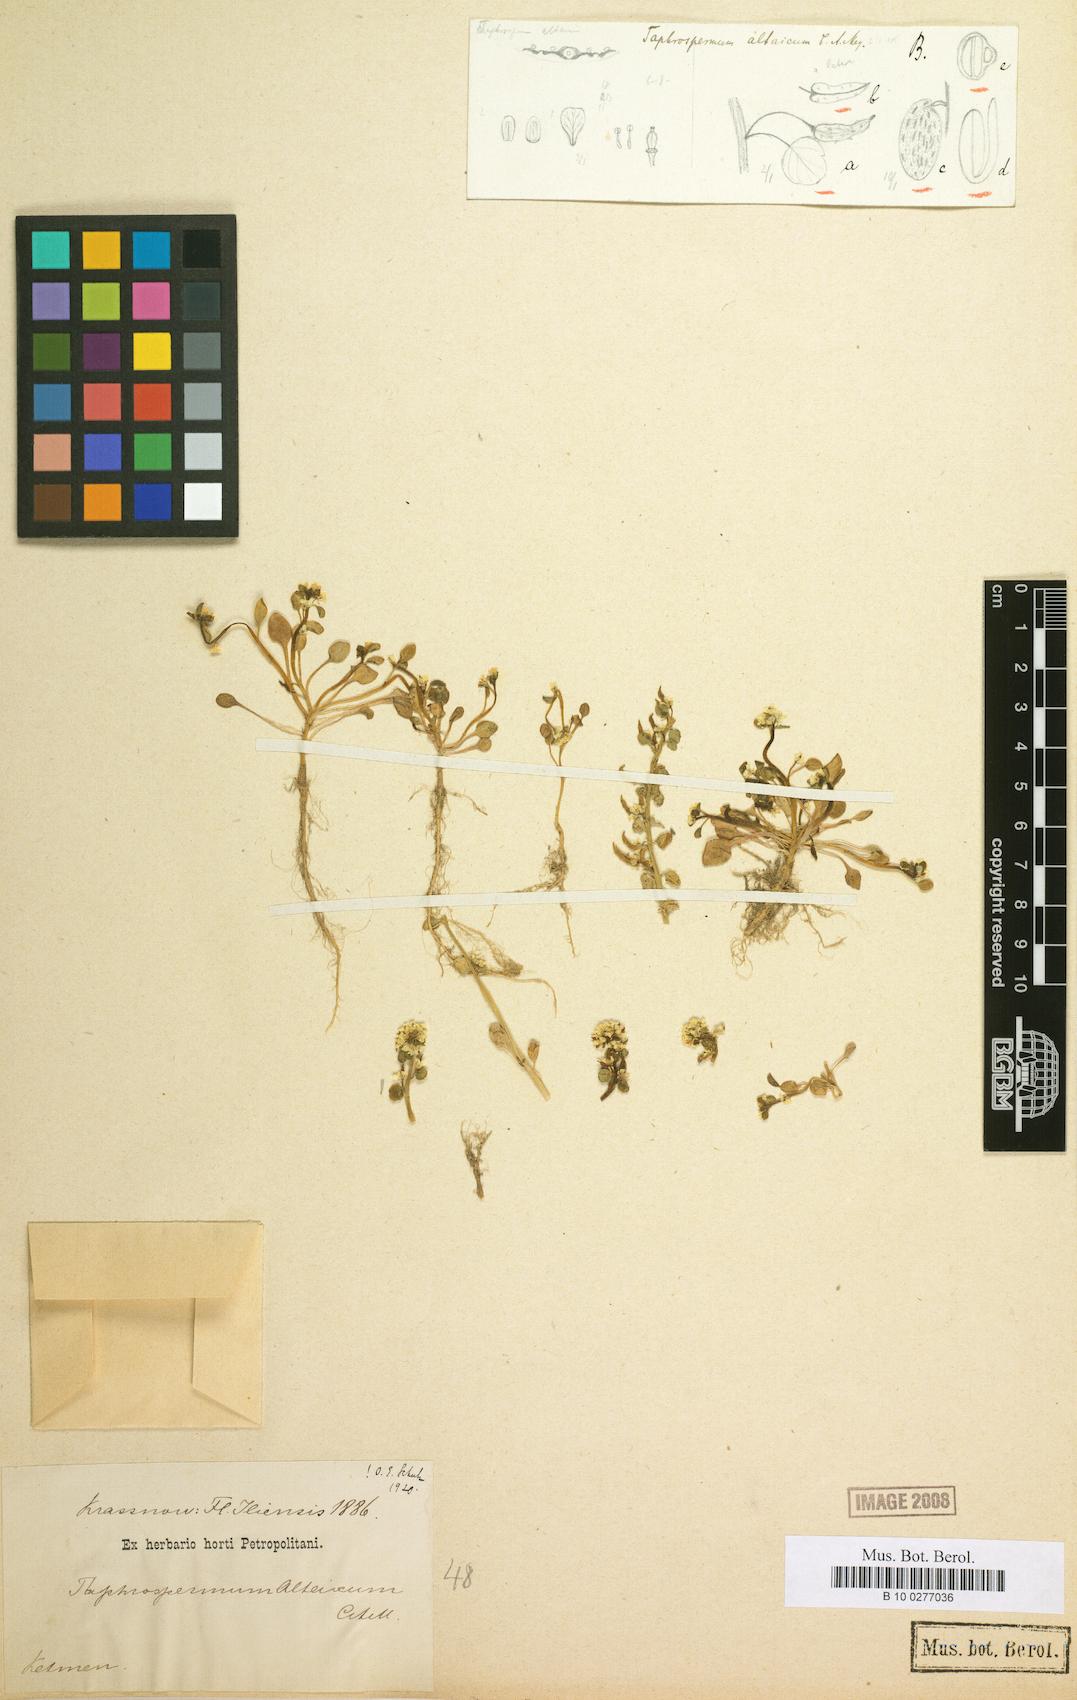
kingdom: Plantae
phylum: Tracheophyta
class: Magnoliopsida
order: Brassicales
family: Brassicaceae
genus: Eutrema
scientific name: Eutrema altaicum
